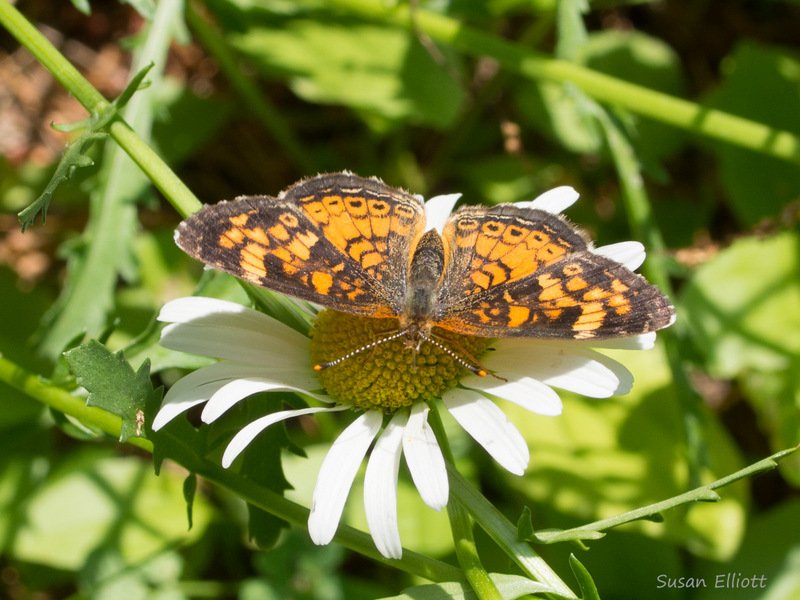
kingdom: Animalia
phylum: Arthropoda
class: Insecta
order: Lepidoptera
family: Nymphalidae
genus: Phyciodes
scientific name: Phyciodes
